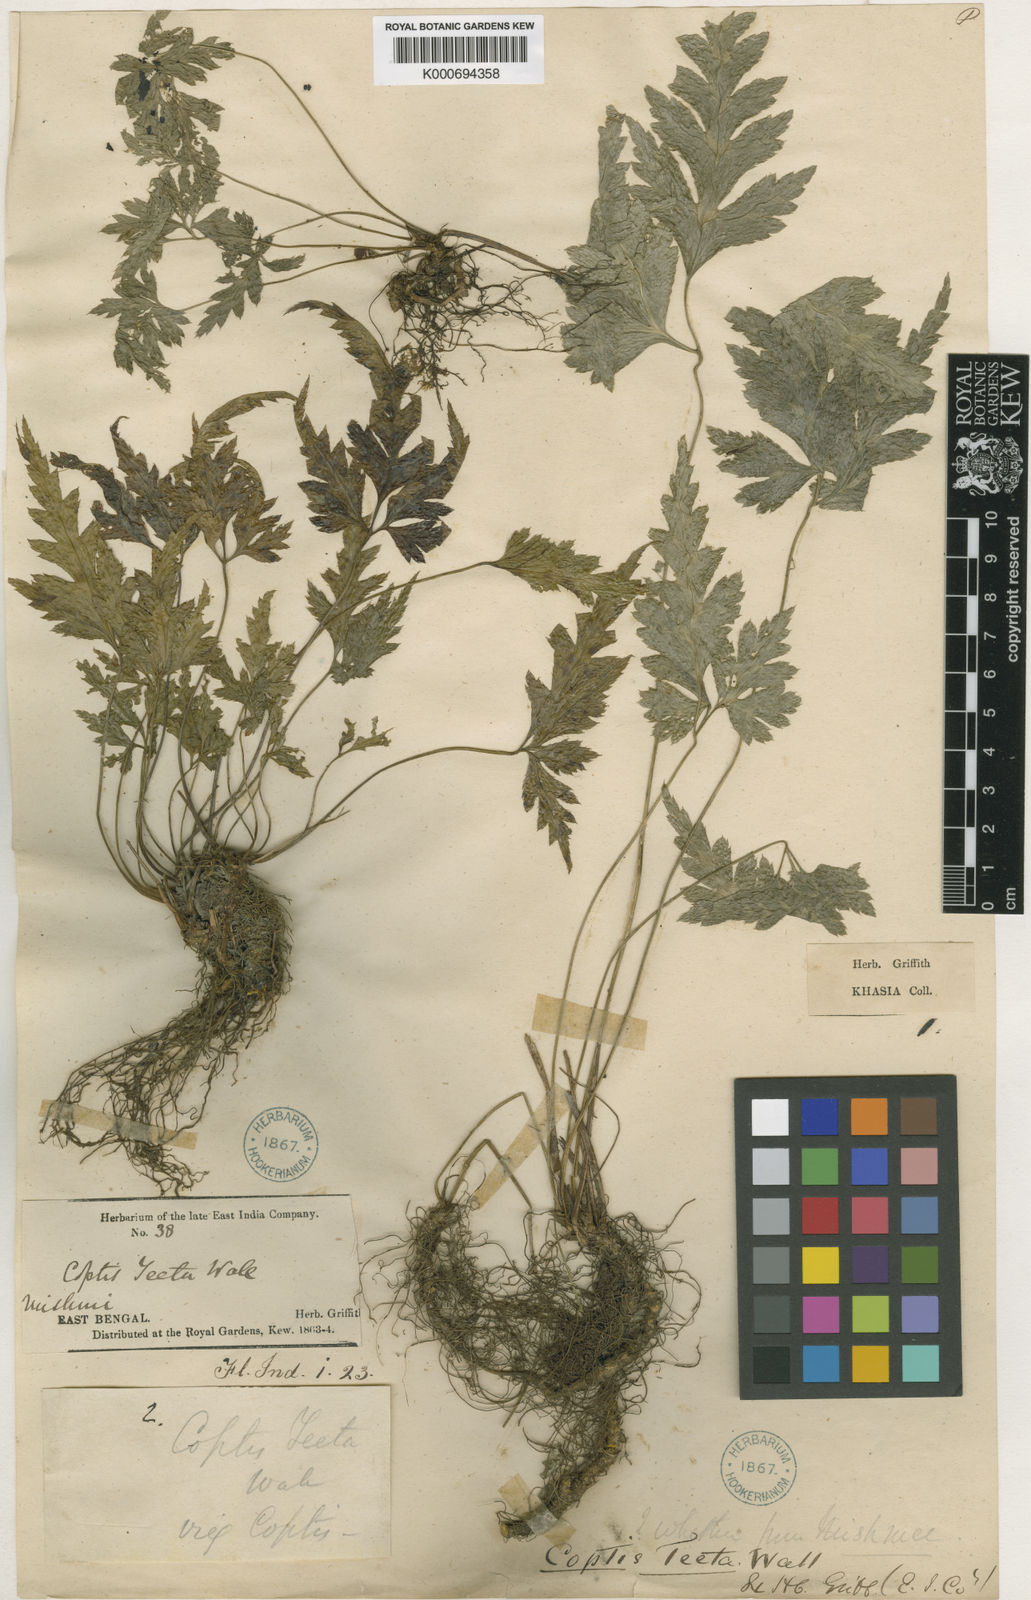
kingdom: Plantae
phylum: Tracheophyta
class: Magnoliopsida
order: Ranunculales
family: Ranunculaceae
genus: Coptis
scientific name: Coptis teeta
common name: Goldthread
